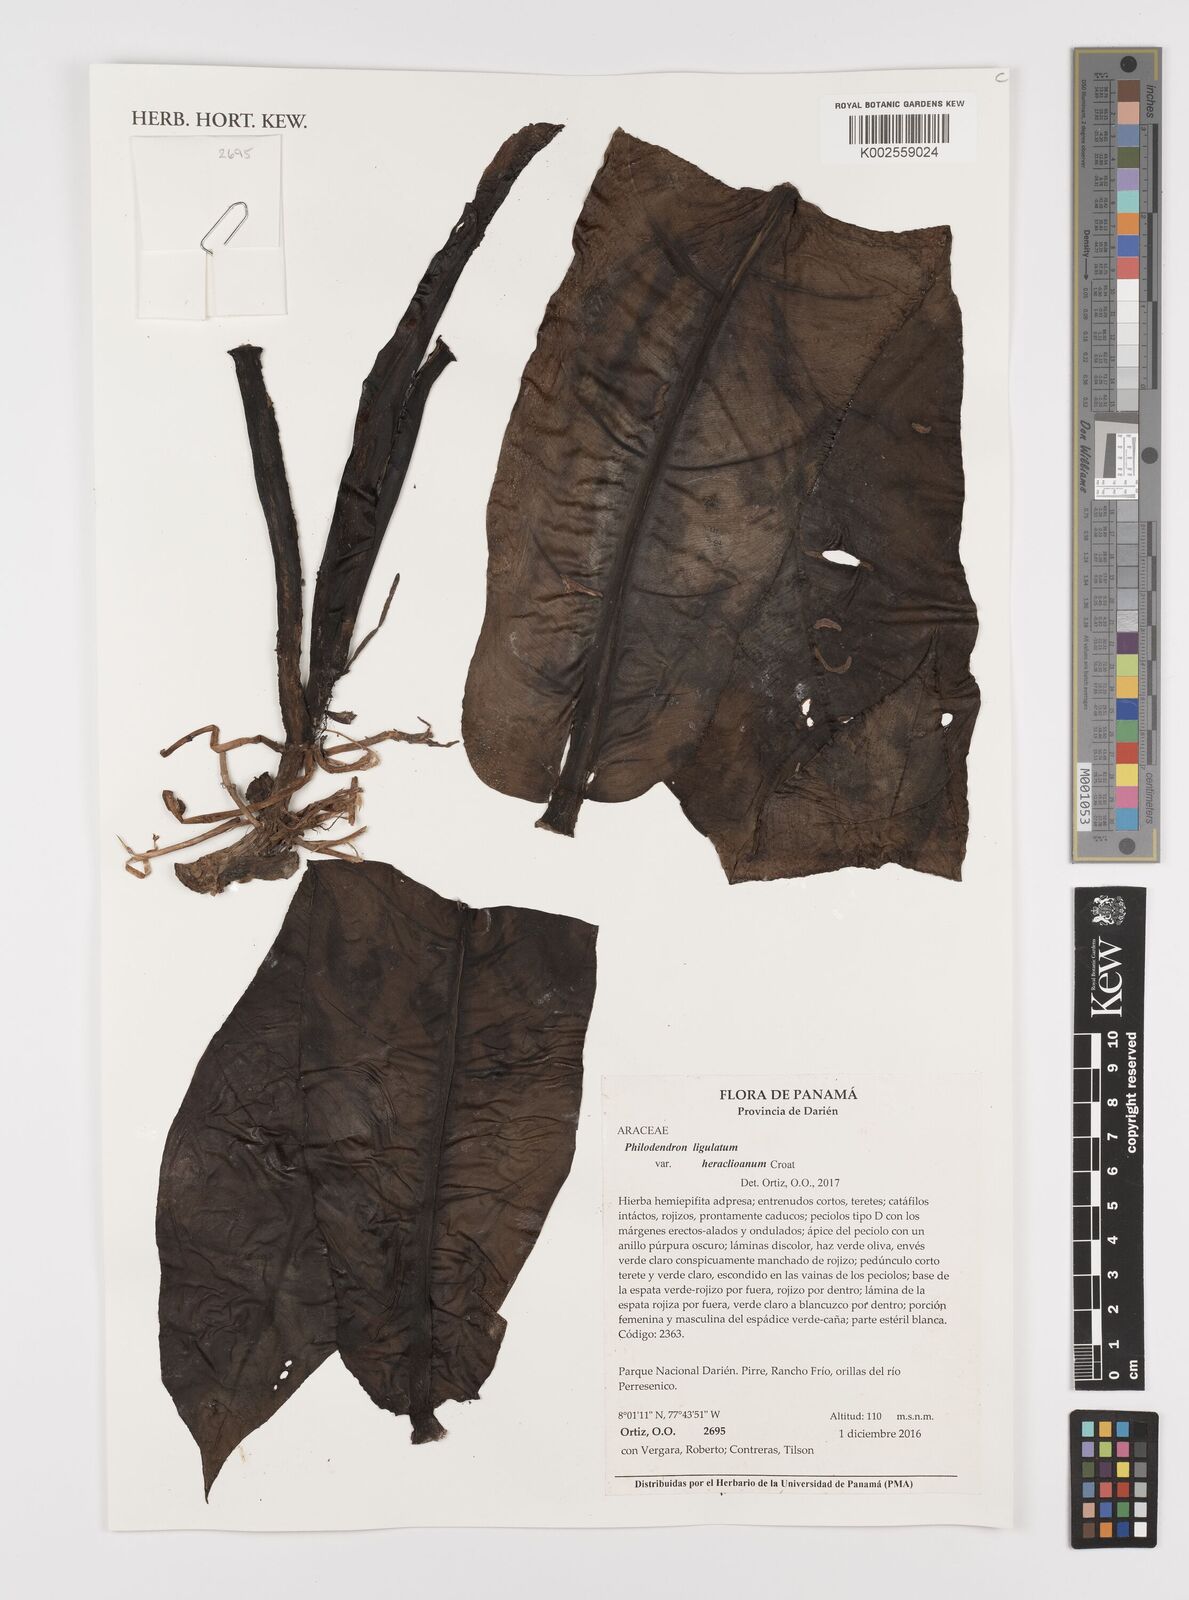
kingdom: Plantae
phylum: Tracheophyta
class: Liliopsida
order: Alismatales
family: Araceae
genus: Philodendron
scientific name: Philodendron ligulatum
